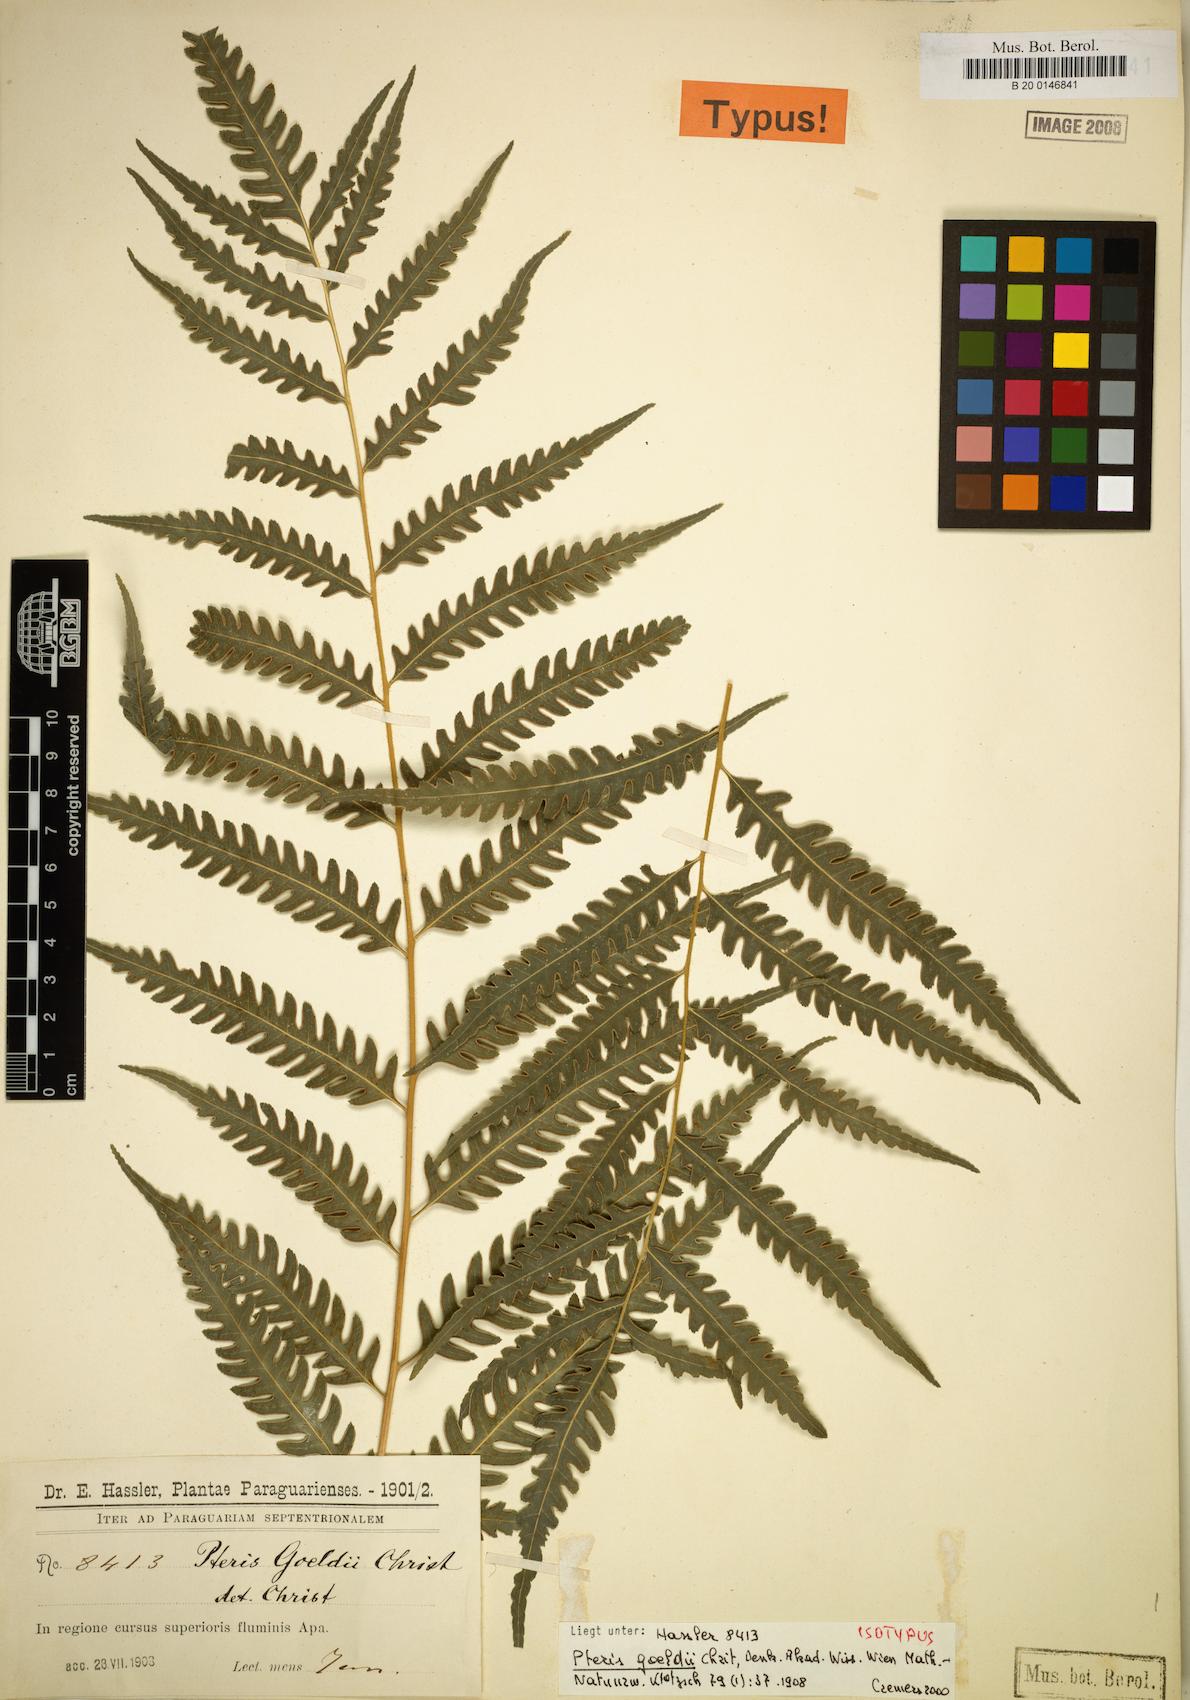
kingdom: Plantae
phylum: Tracheophyta
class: Polypodiopsida
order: Polypodiales
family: Pteridaceae
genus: Pteris
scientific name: Pteris propinqua
